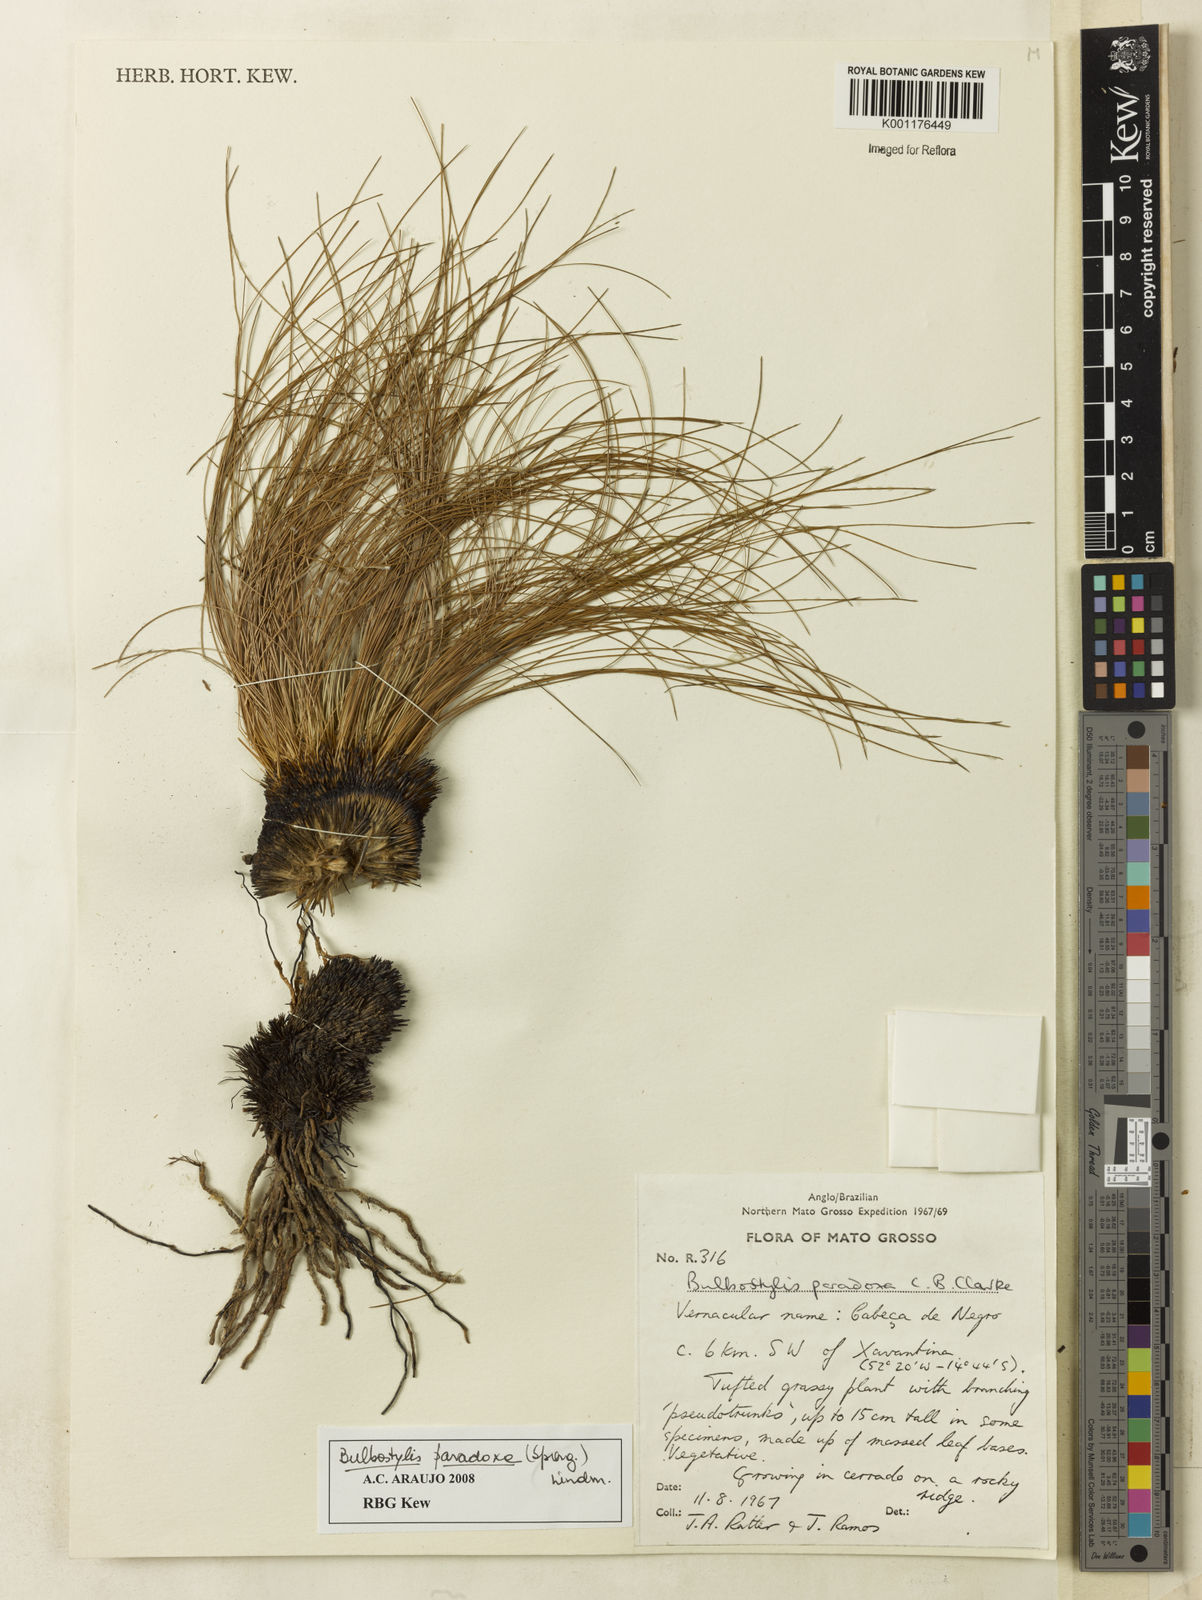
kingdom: Plantae
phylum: Tracheophyta
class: Liliopsida
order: Poales
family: Cyperaceae
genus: Bulbostylis
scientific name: Bulbostylis paradoxa
